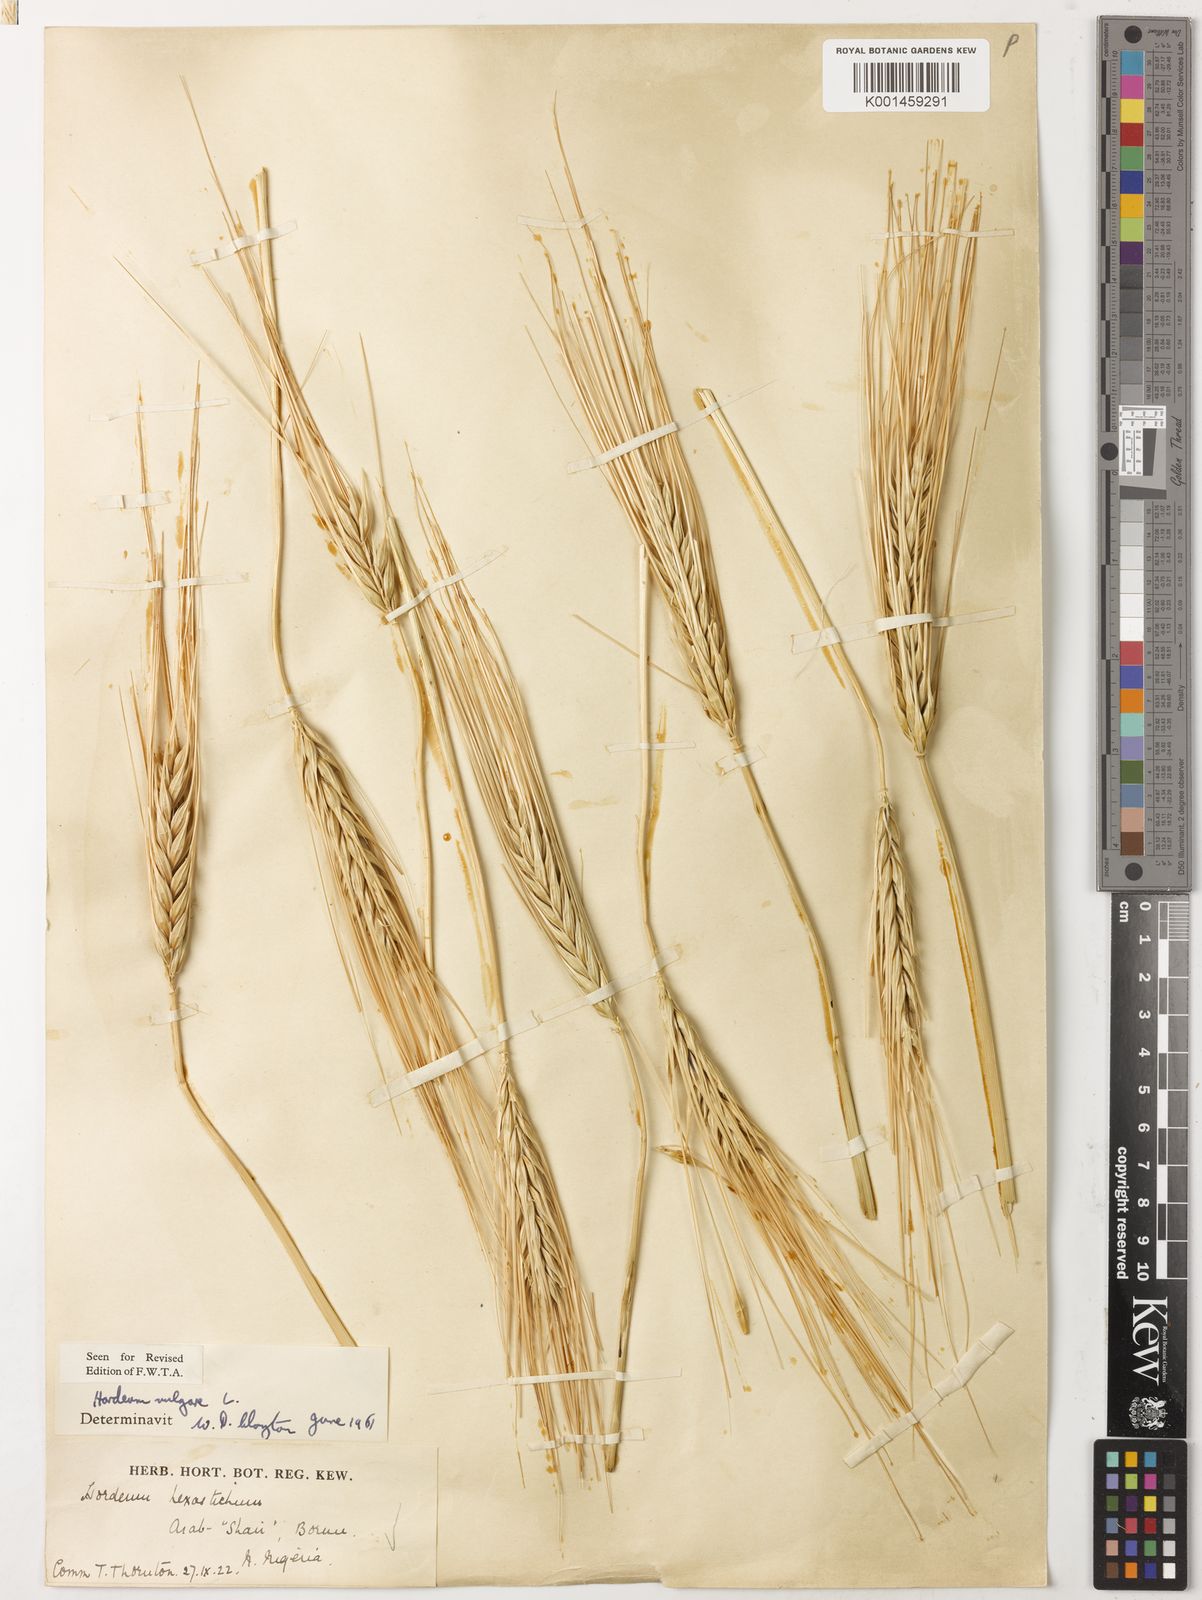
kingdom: Plantae
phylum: Tracheophyta
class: Liliopsida
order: Poales
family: Poaceae
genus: Hordeum
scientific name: Hordeum vulgare
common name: Common barley
